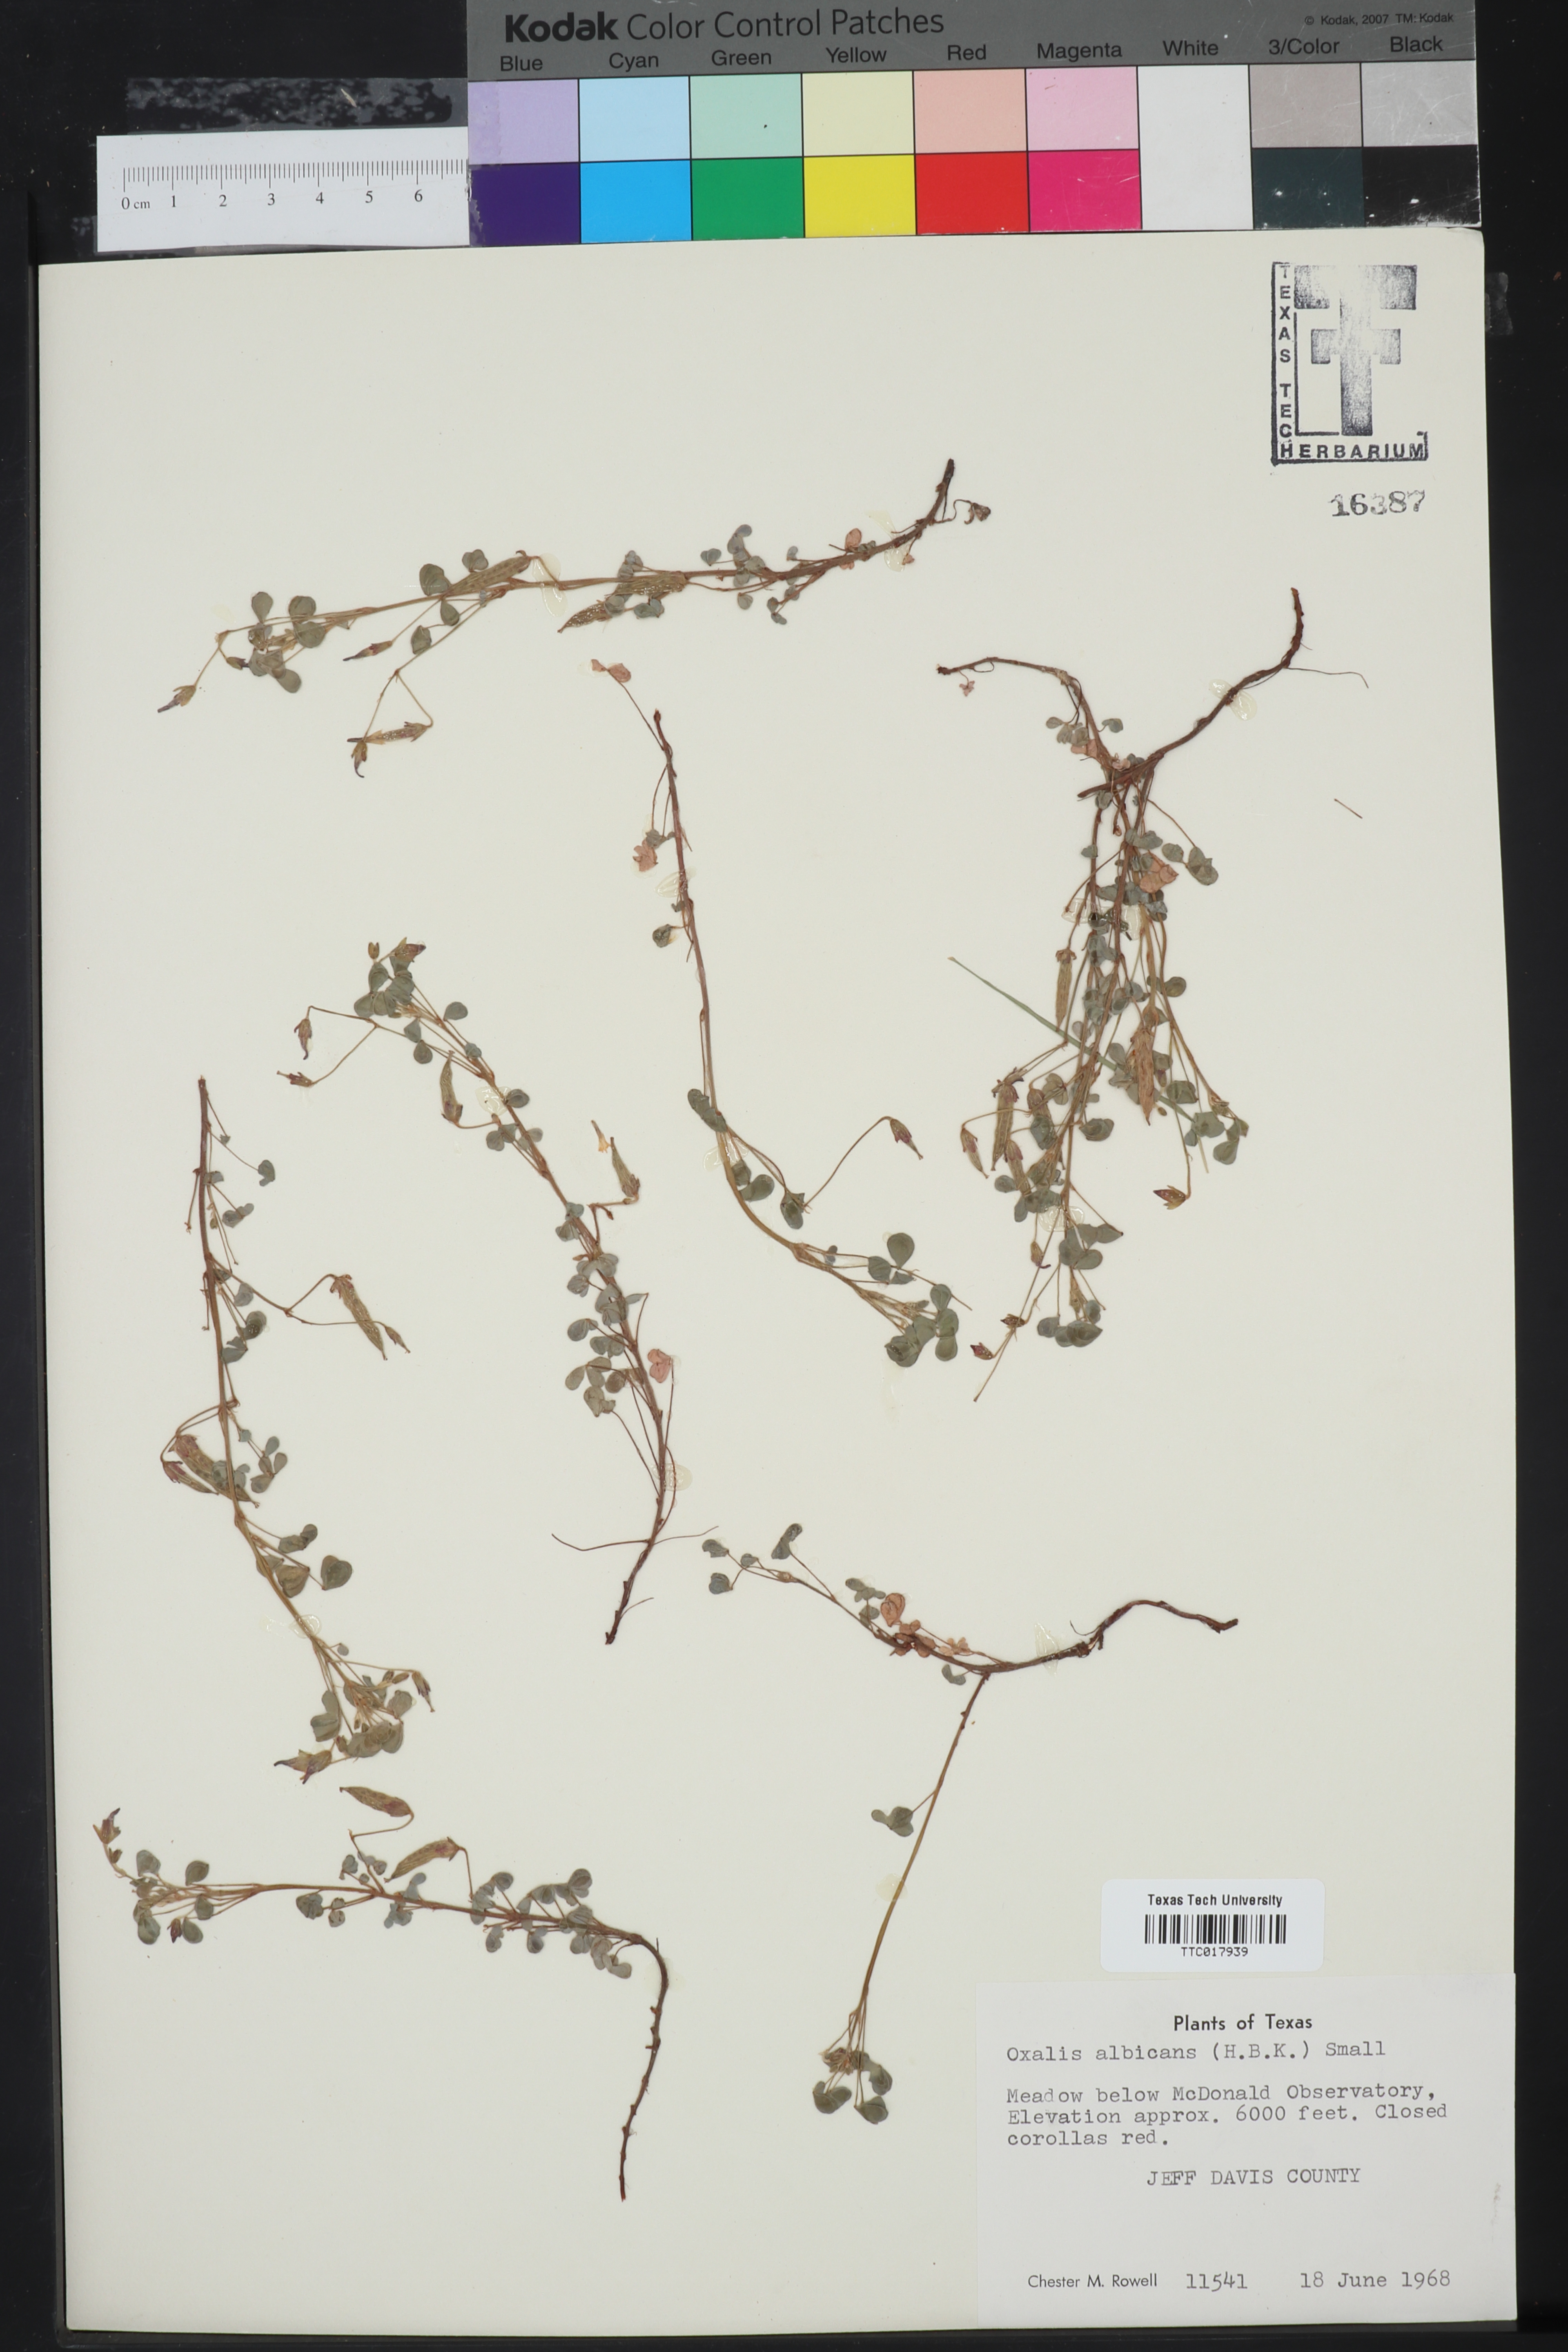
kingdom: Plantae
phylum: Tracheophyta
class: Magnoliopsida
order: Oxalidales
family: Oxalidaceae
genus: Oxalis
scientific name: Oxalis albicans
